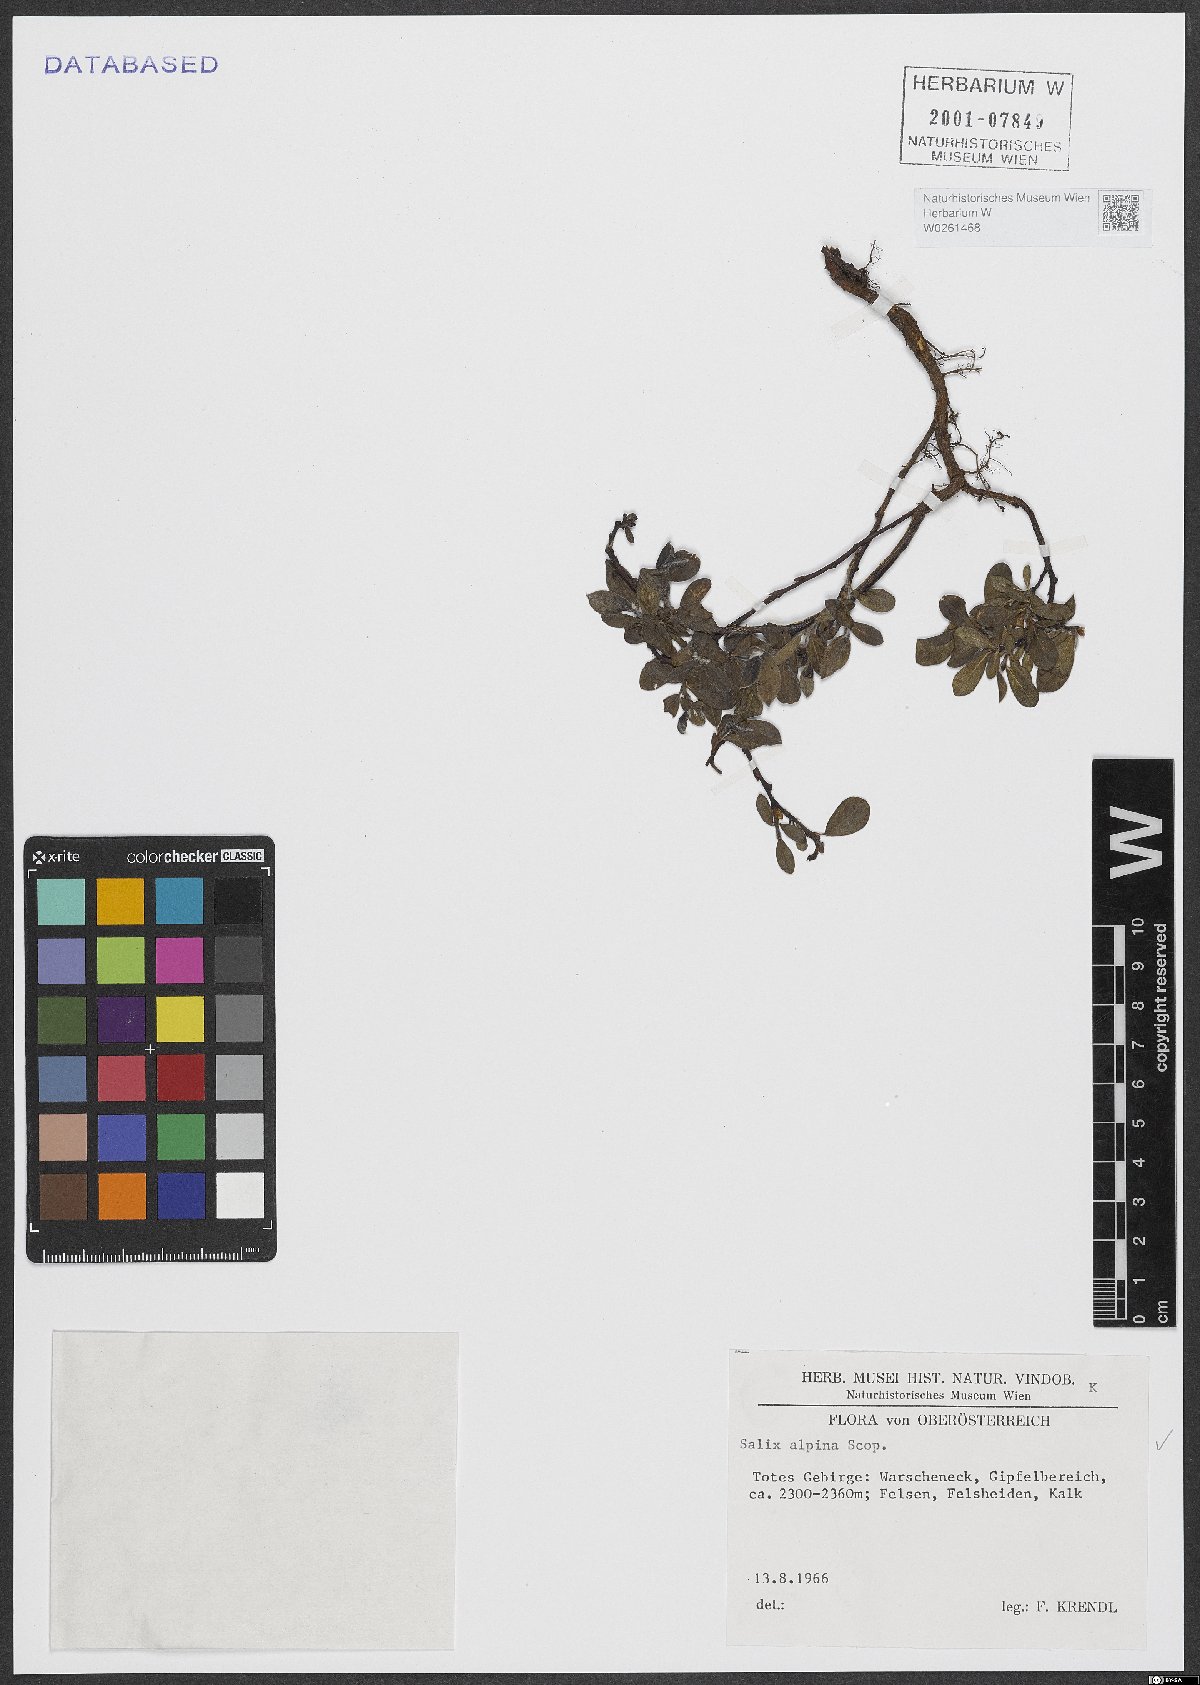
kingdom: Plantae
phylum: Tracheophyta
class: Magnoliopsida
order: Malpighiales
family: Salicaceae
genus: Salix
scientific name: Salix alpina
